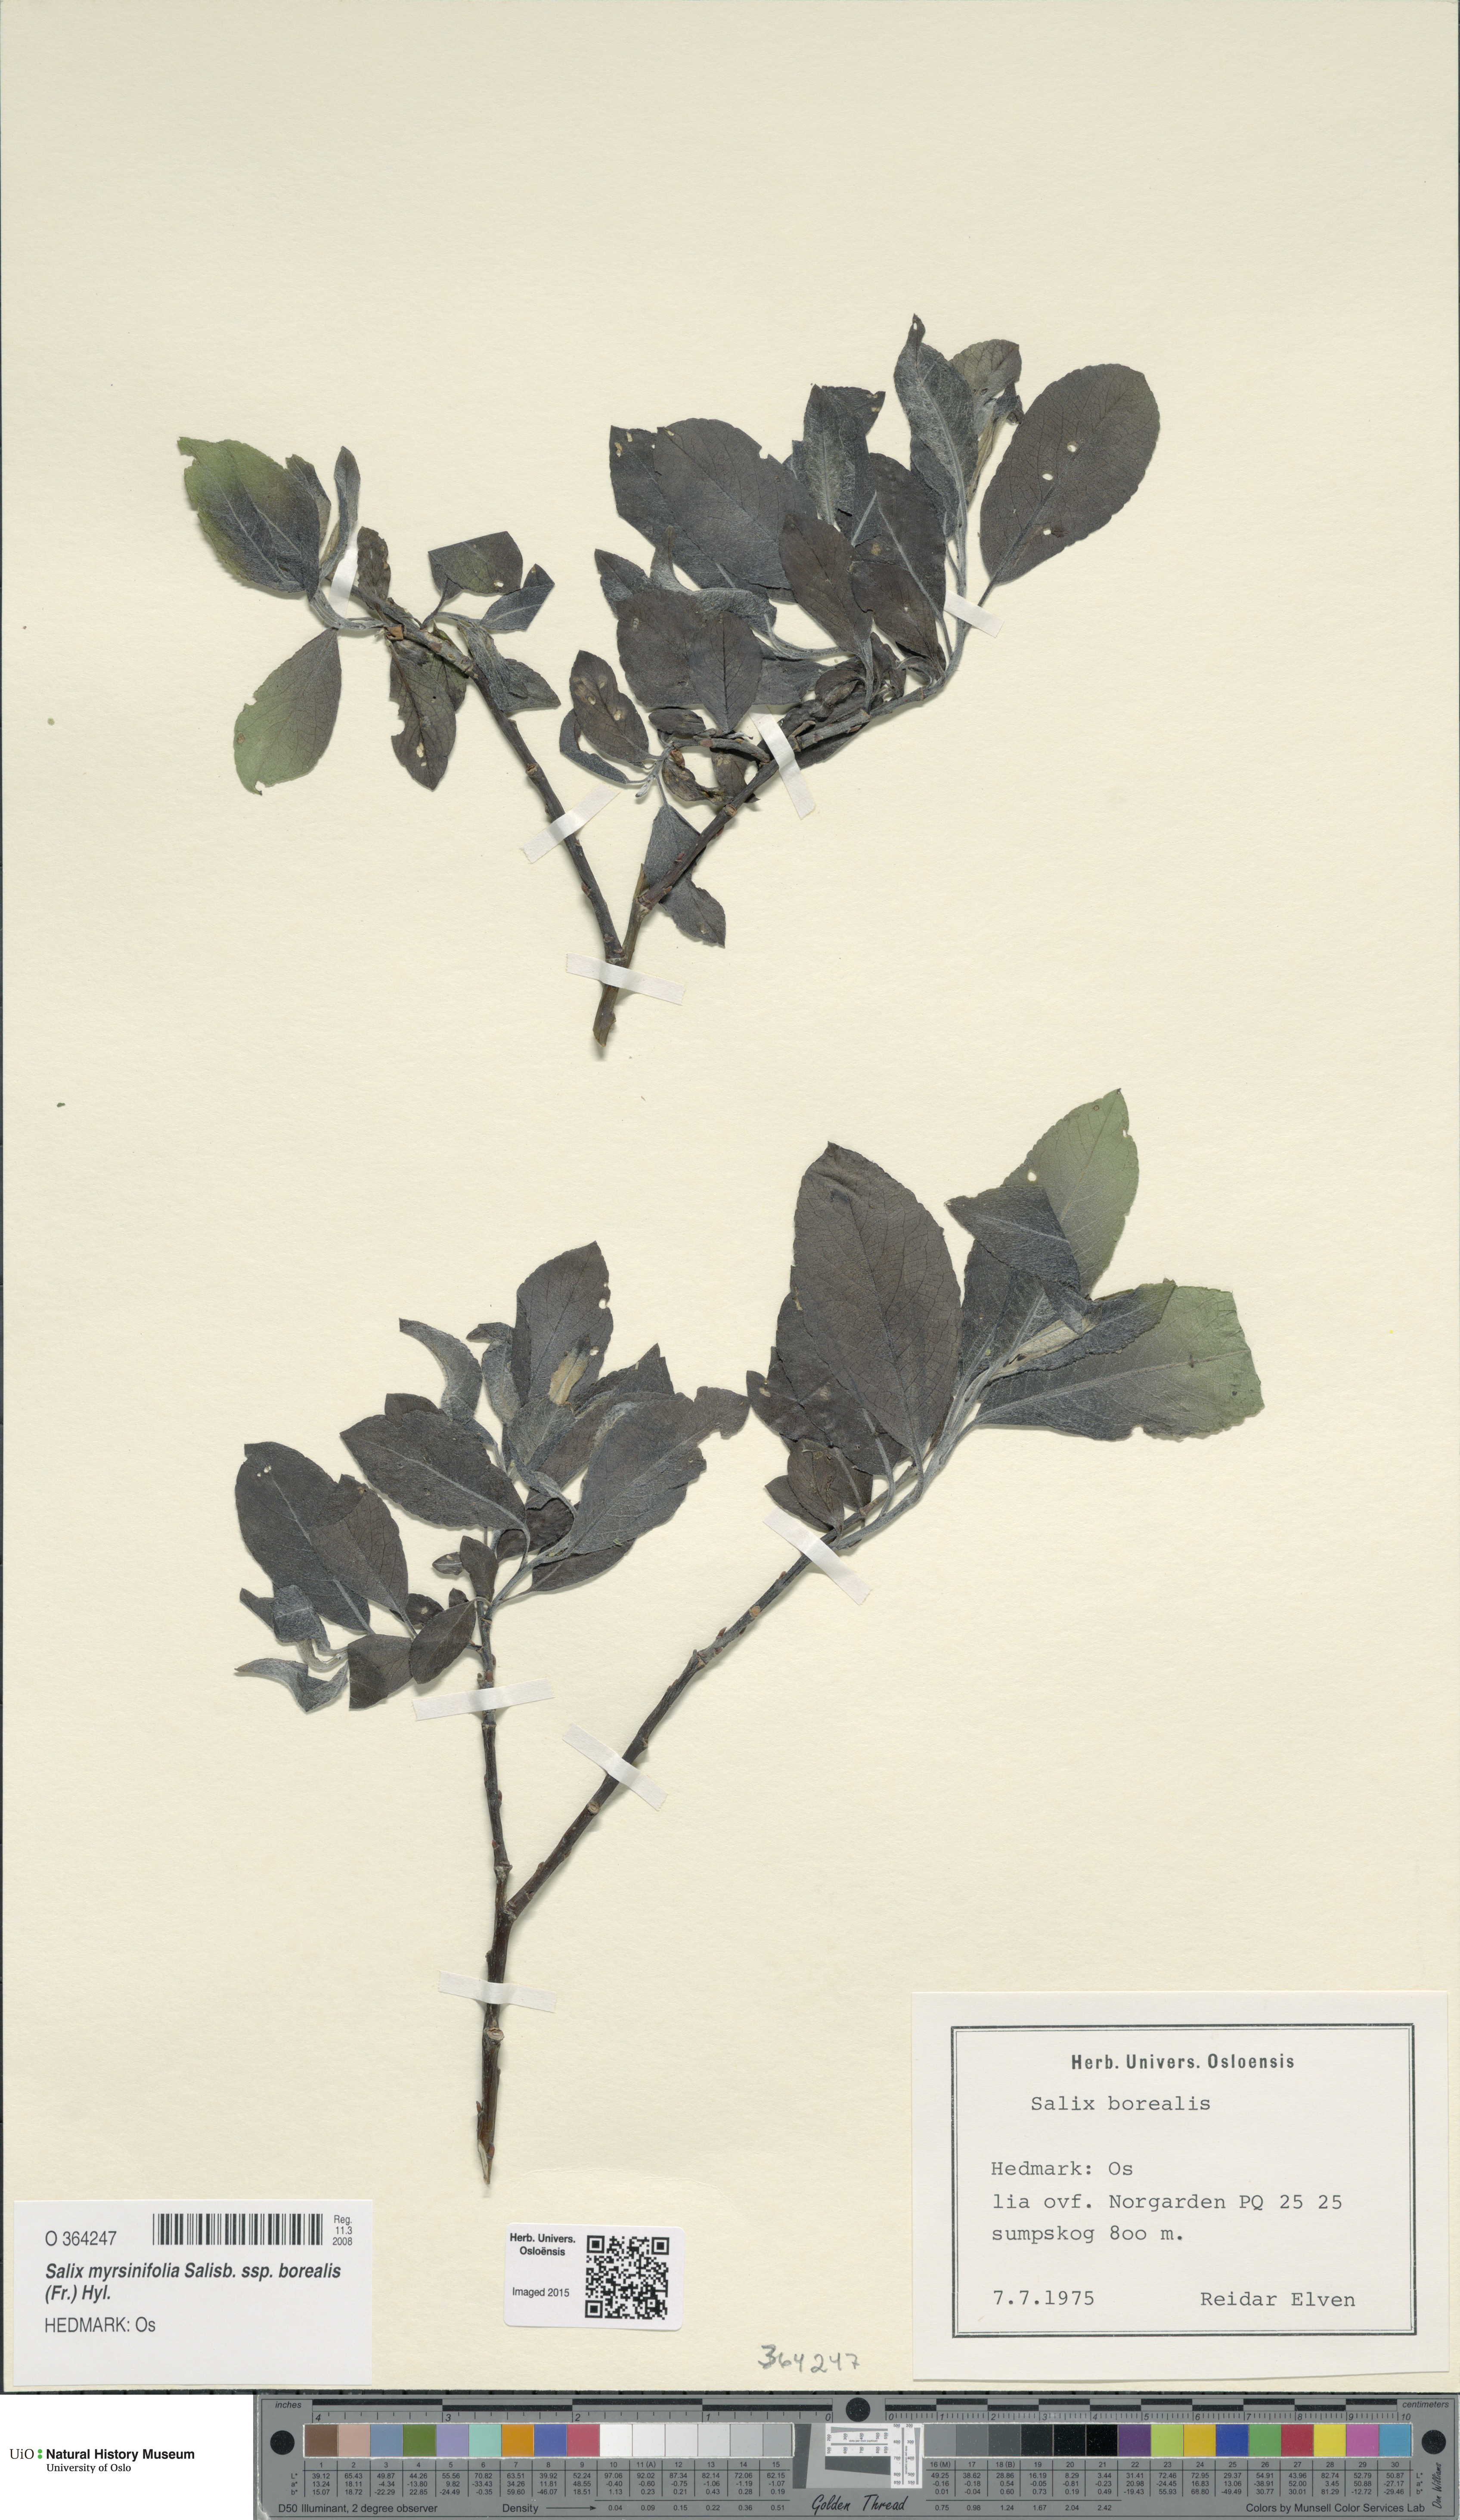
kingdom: Plantae
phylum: Tracheophyta
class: Magnoliopsida
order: Malpighiales
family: Salicaceae
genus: Salix
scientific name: Salix myrsinifolia
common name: Dark-leaved willow
